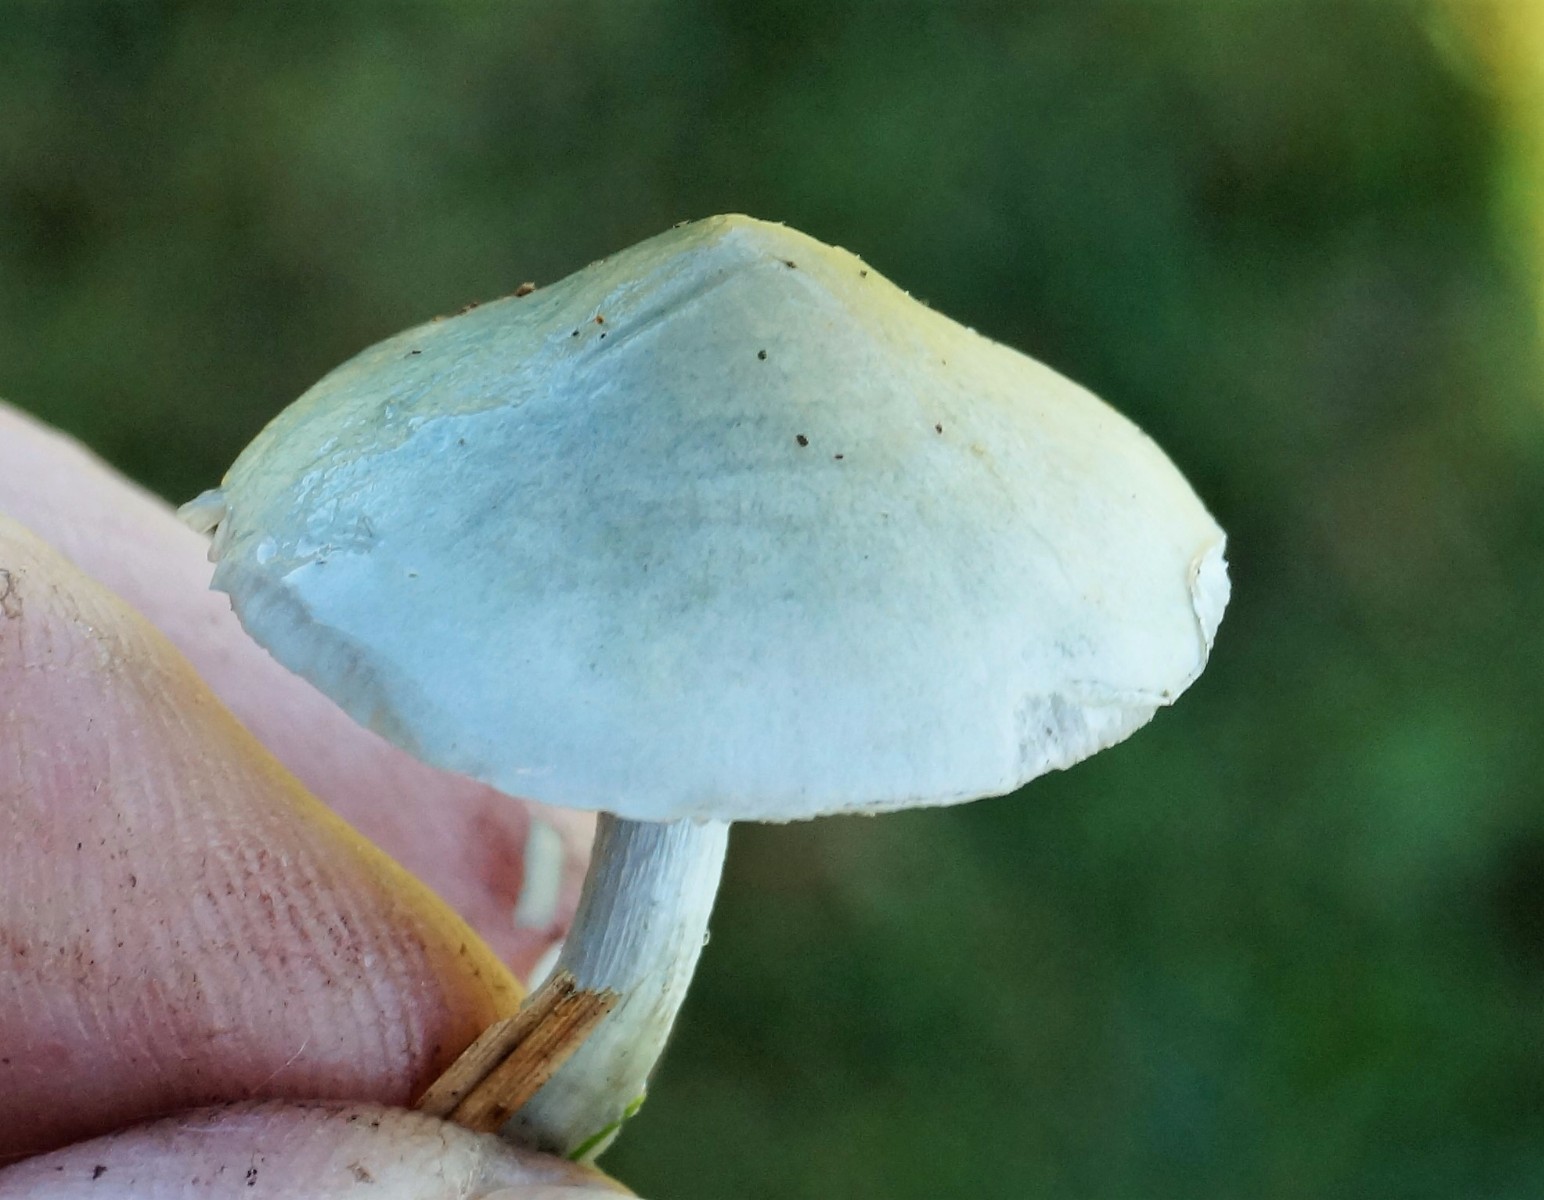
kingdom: Fungi
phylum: Basidiomycota
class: Agaricomycetes
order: Agaricales
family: Strophariaceae
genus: Stropharia
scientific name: Stropharia aeruginosa
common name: spanskgrøn bredblad
